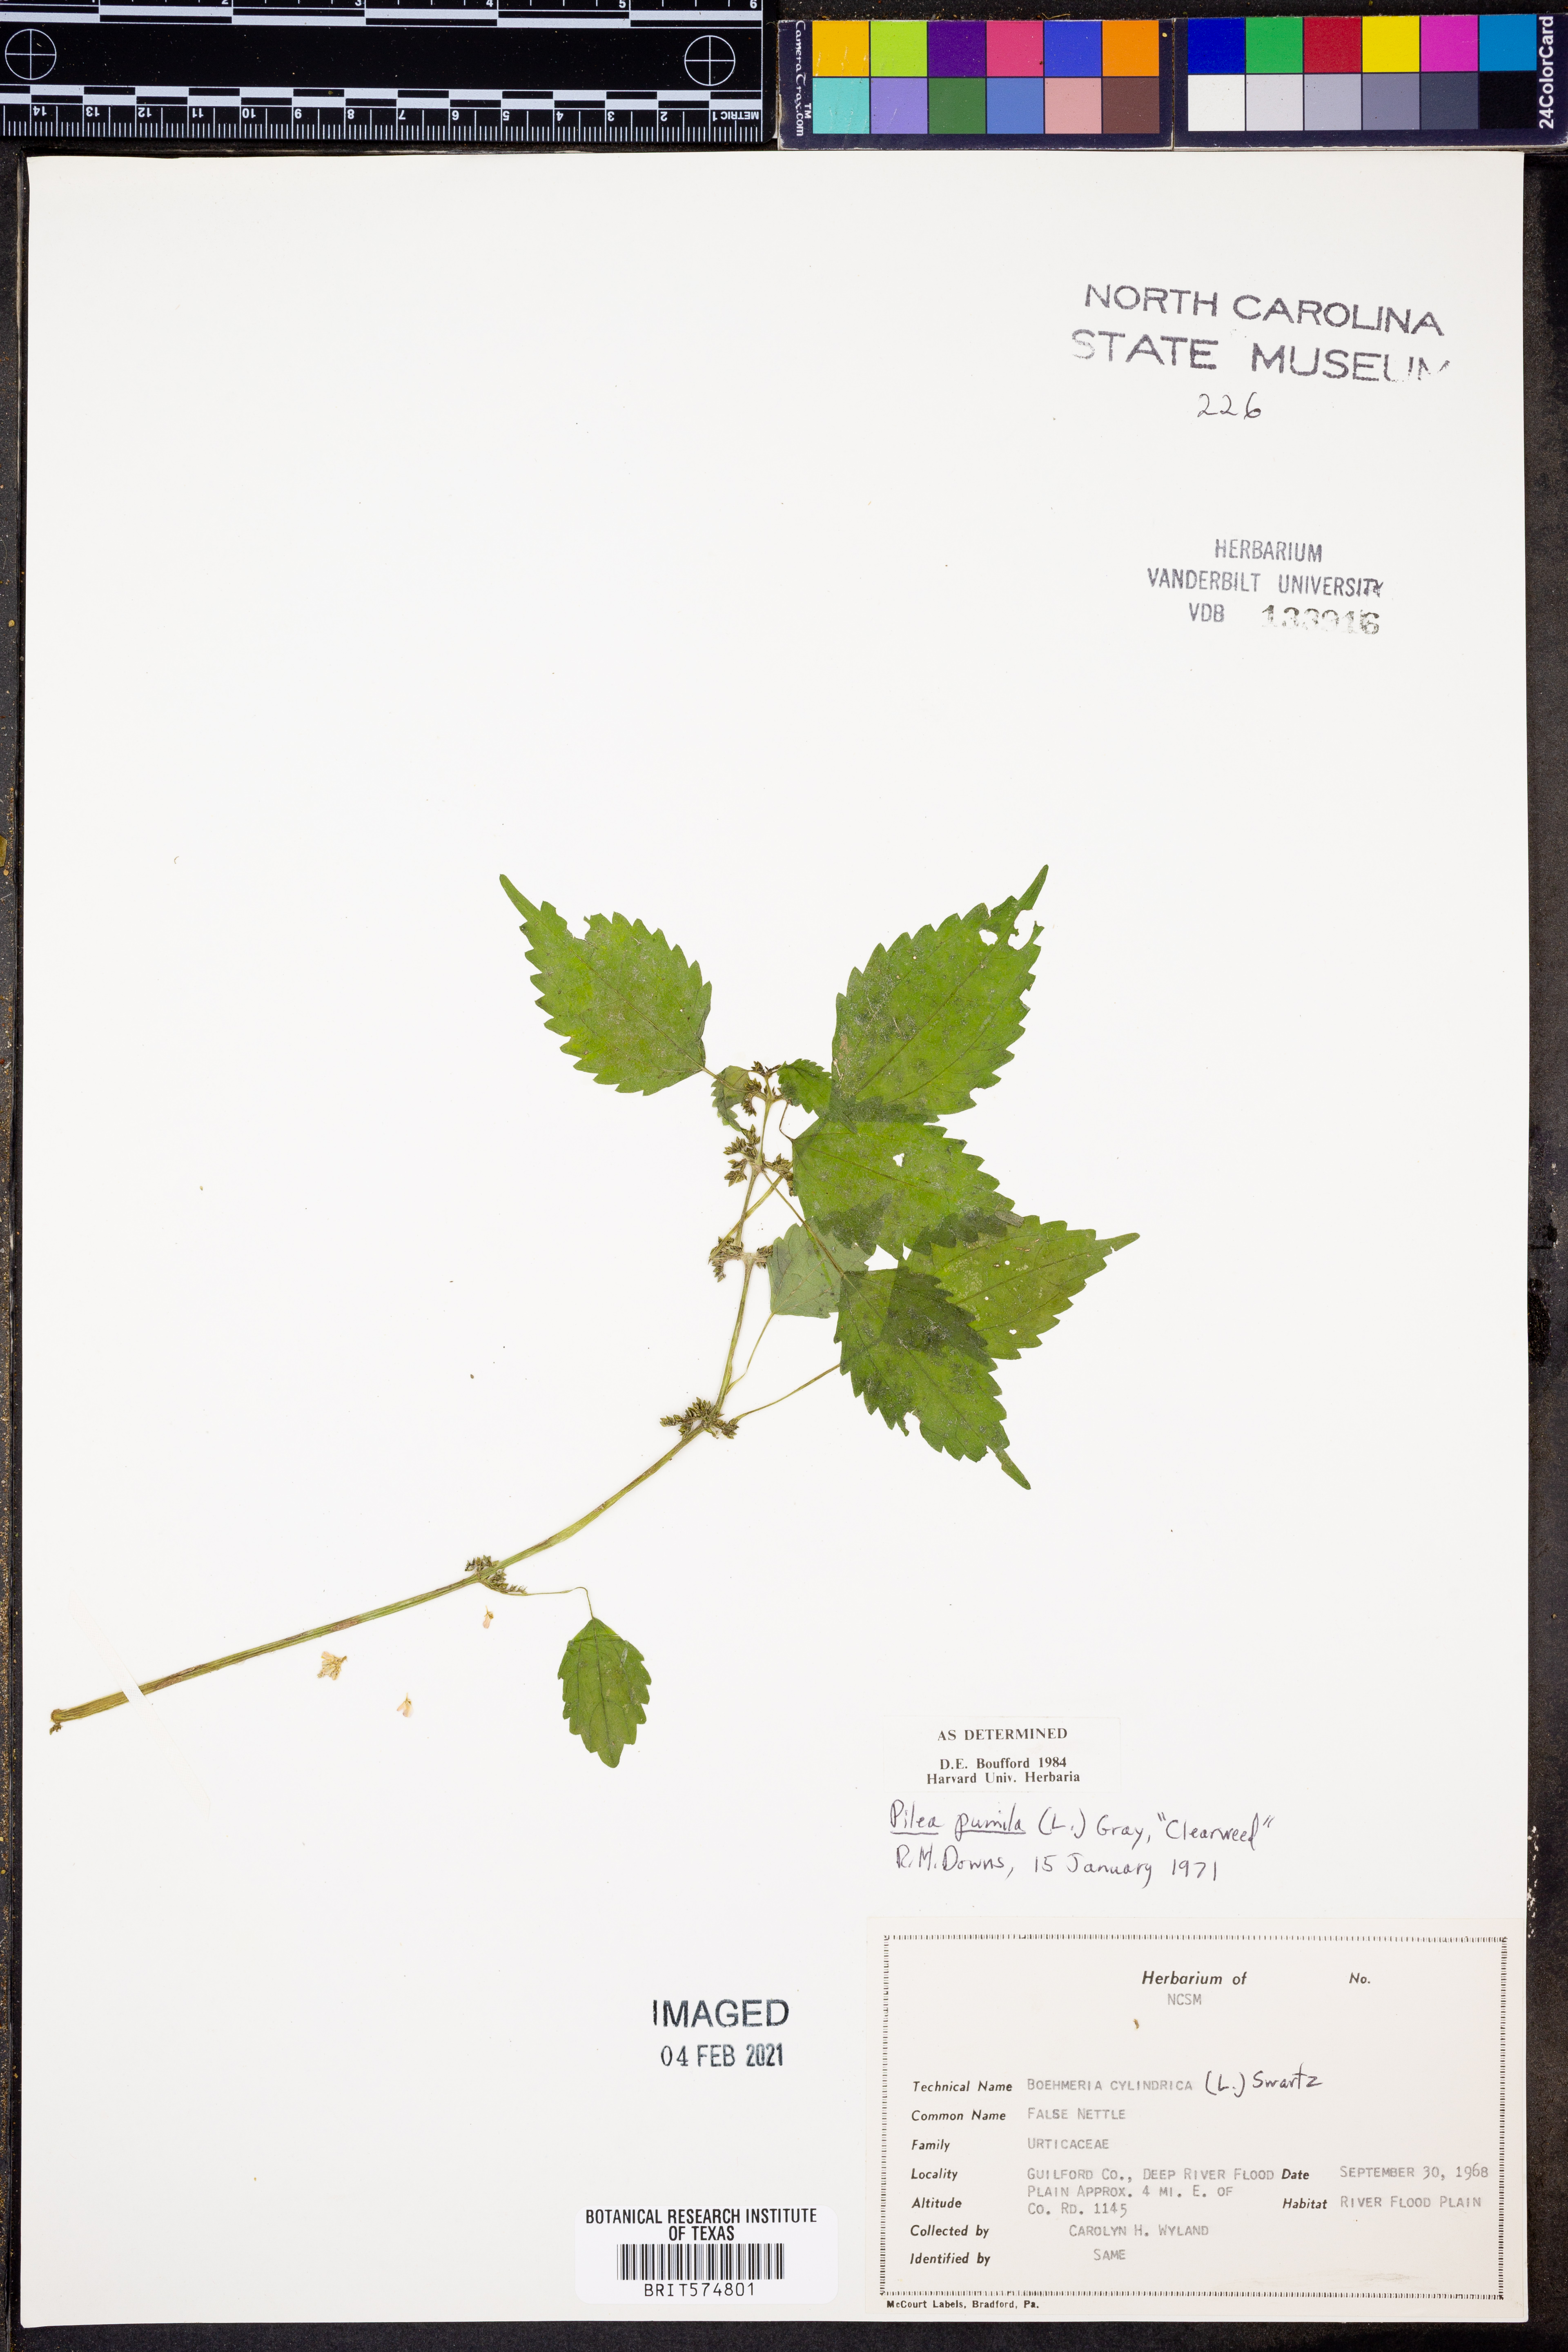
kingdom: Plantae
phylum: Tracheophyta
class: Magnoliopsida
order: Rosales
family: Urticaceae
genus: Pilea
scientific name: Pilea pumila
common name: Clearweed
